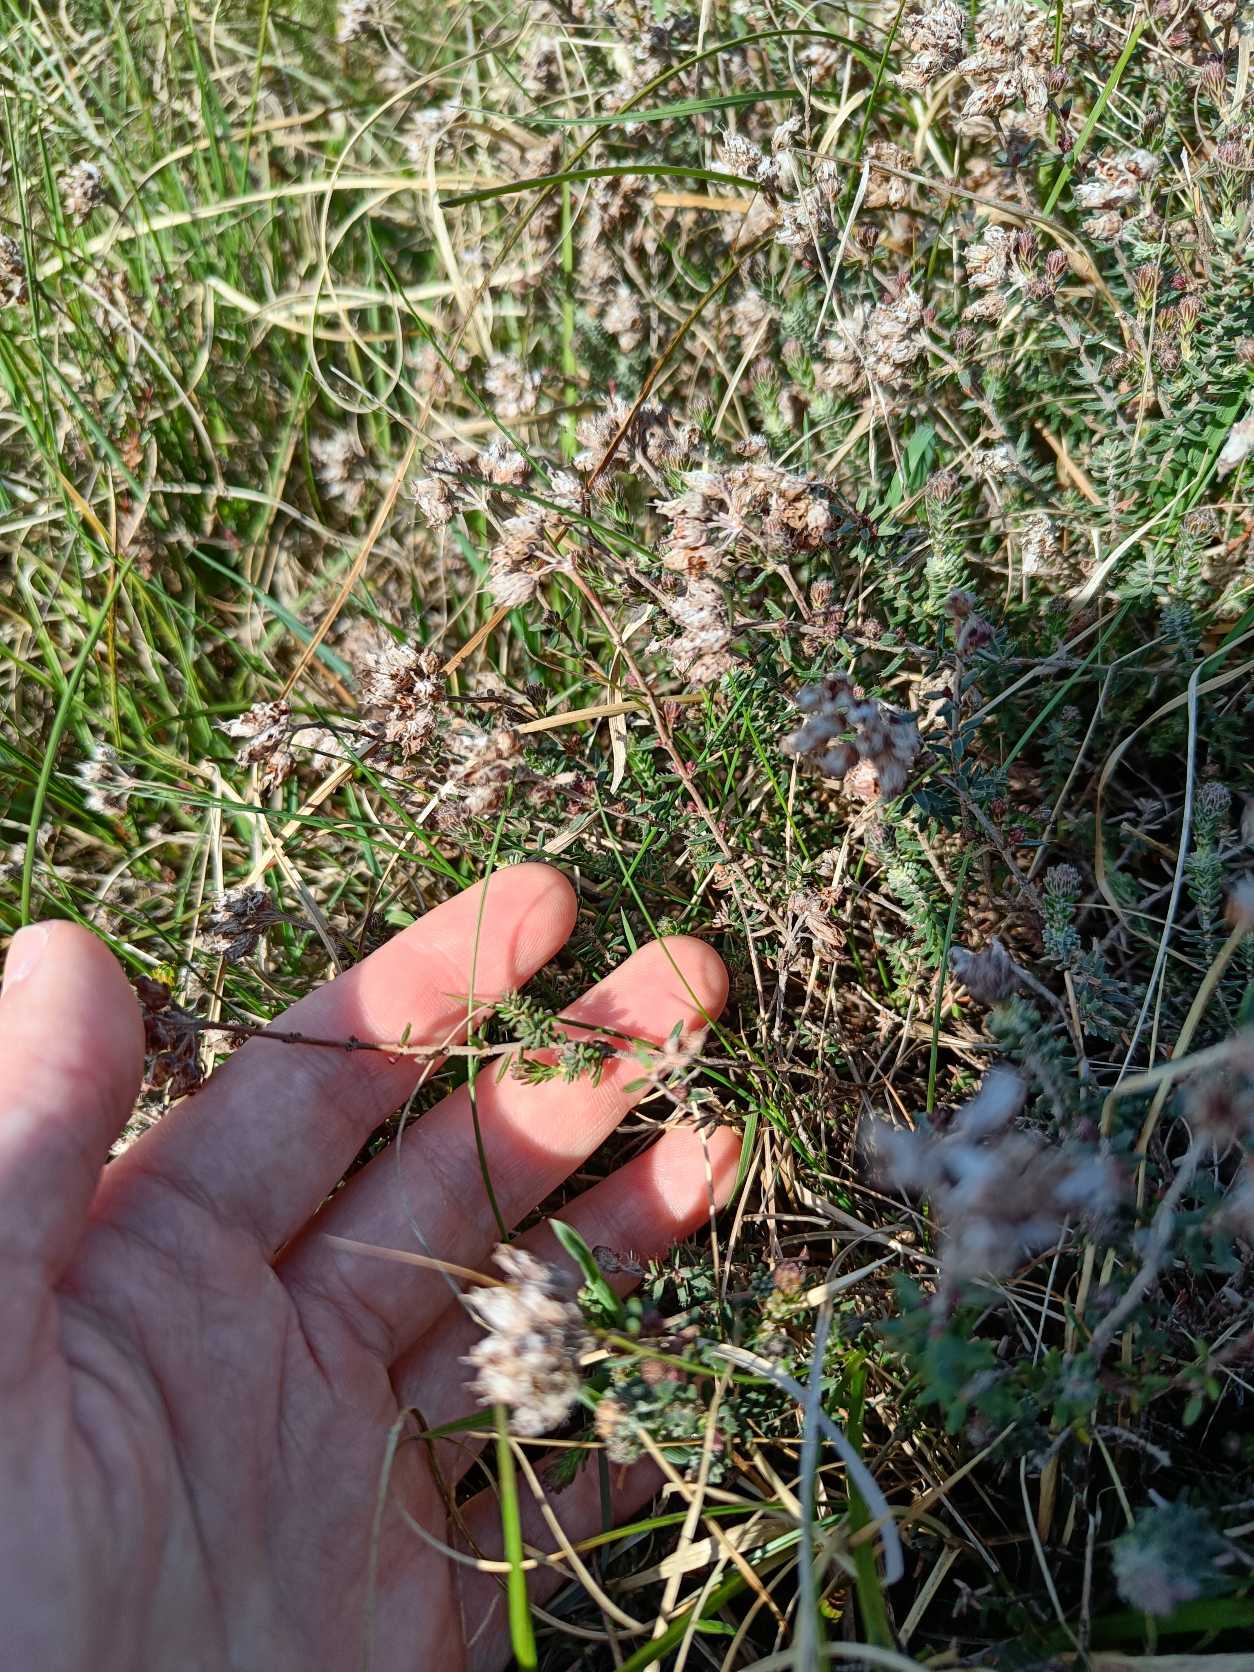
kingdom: Plantae
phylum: Tracheophyta
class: Magnoliopsida
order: Ericales
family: Ericaceae
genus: Erica
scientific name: Erica tetralix
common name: Klokkelyng
